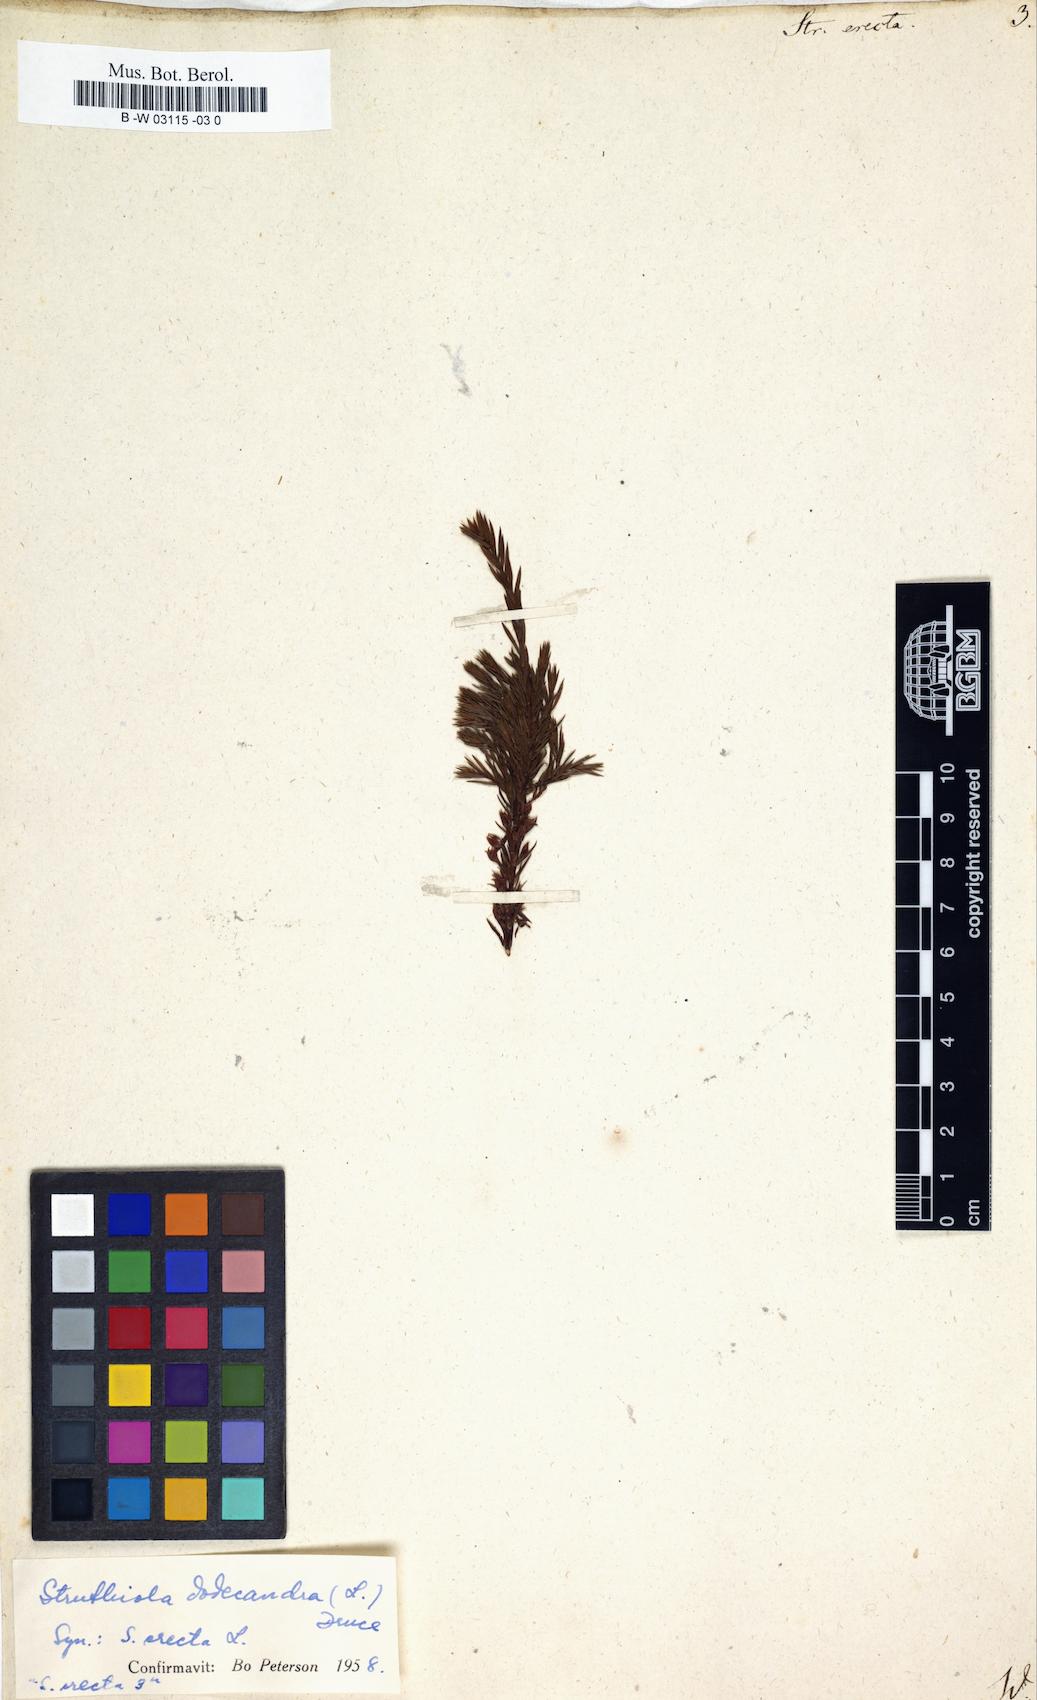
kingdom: Plantae
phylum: Tracheophyta
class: Magnoliopsida
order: Malvales
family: Thymelaeaceae
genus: Struthiola
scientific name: Struthiola
